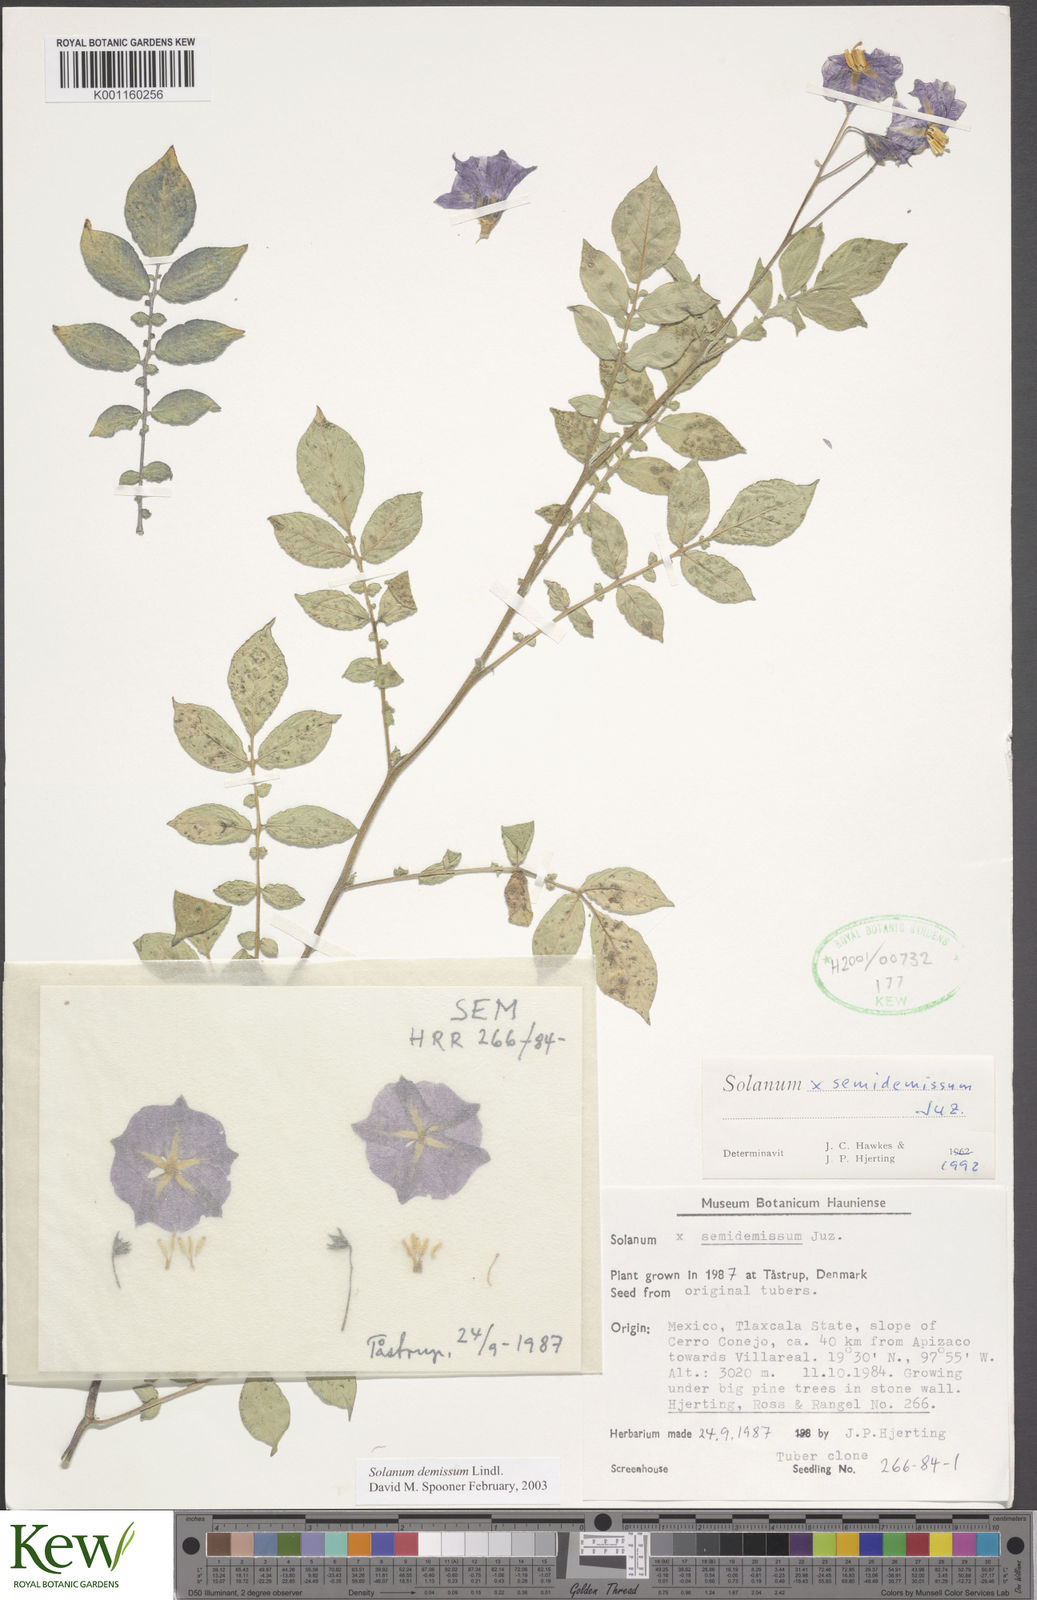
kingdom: Plantae
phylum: Tracheophyta
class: Magnoliopsida
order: Solanales
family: Solanaceae
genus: Solanum
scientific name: Solanum demissum
